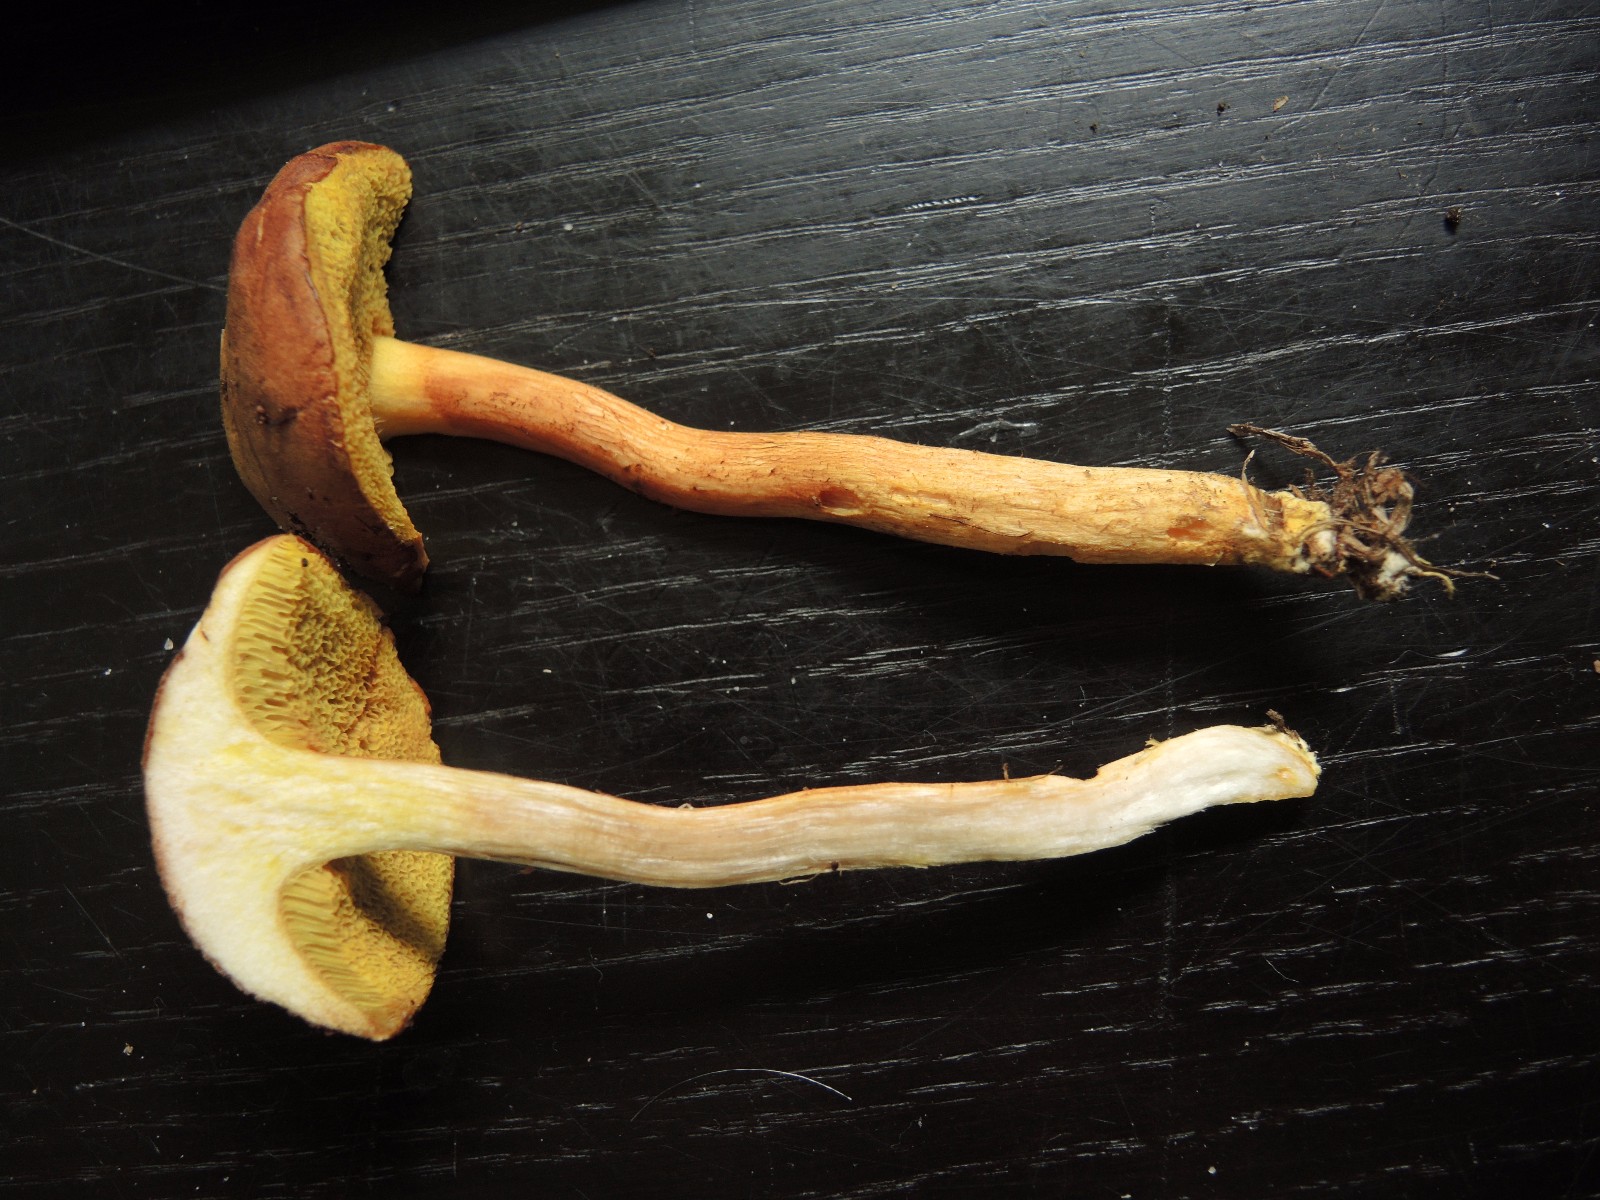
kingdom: Fungi
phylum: Basidiomycota
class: Agaricomycetes
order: Boletales
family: Boletaceae
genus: Xerocomus
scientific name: Xerocomus ferrugineus
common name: vaskeskinds-rørhat
